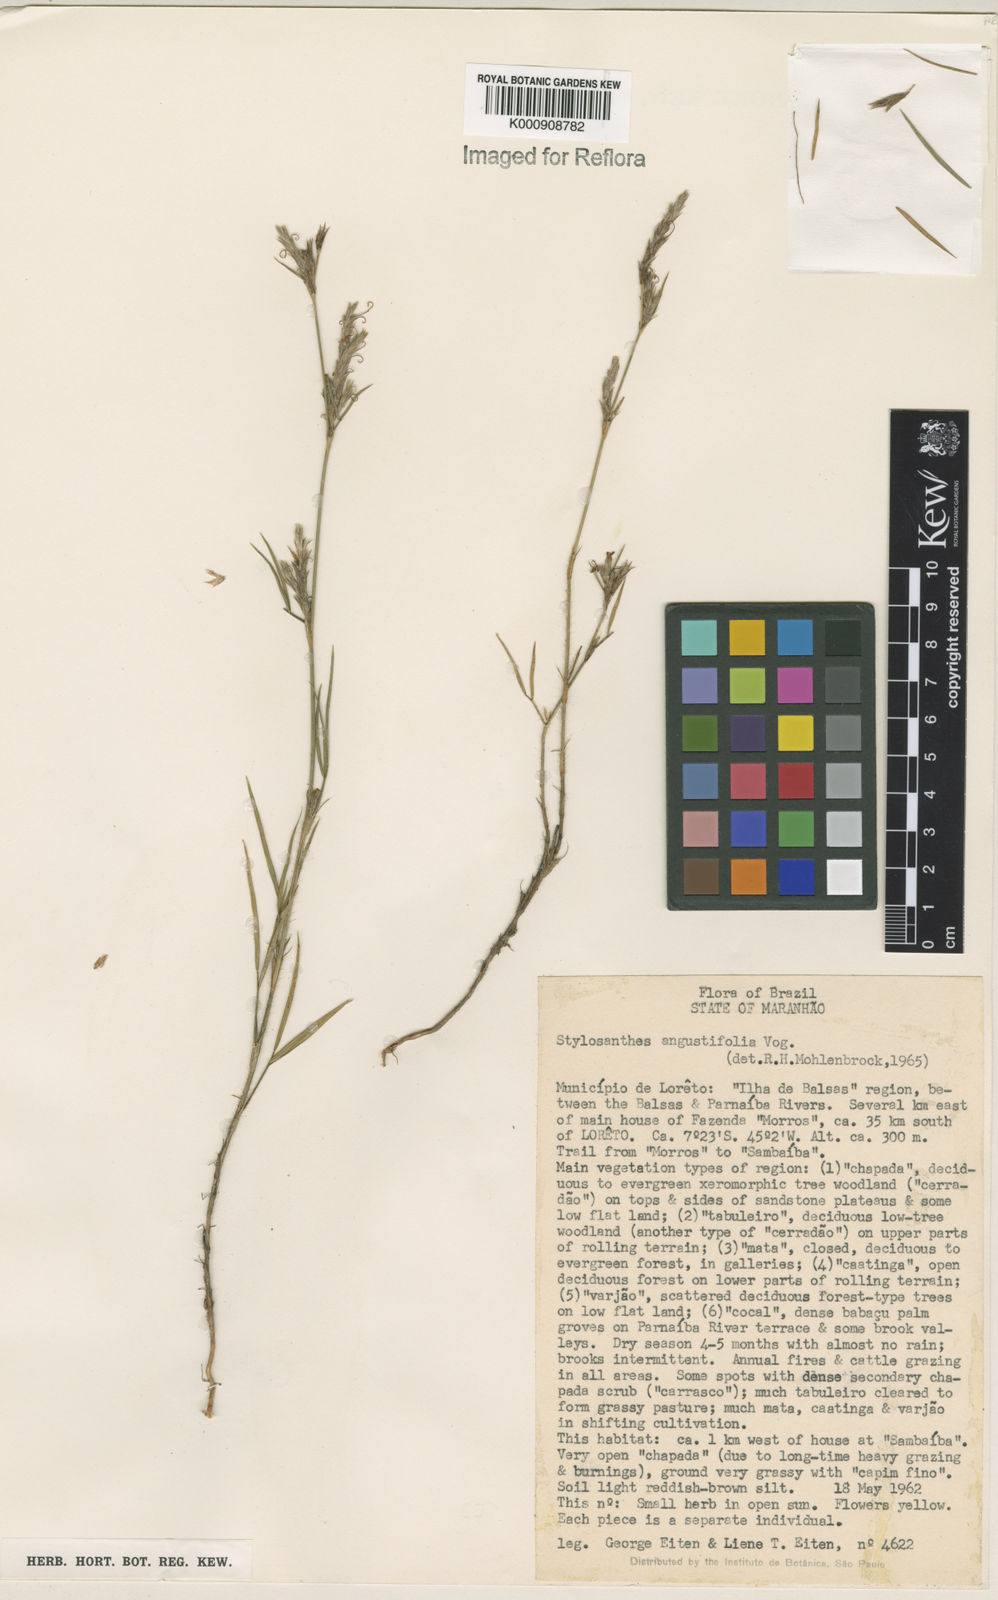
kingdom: Plantae
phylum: Tracheophyta
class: Magnoliopsida
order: Fabales
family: Fabaceae
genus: Stylosanthes
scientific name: Stylosanthes angustifolia
